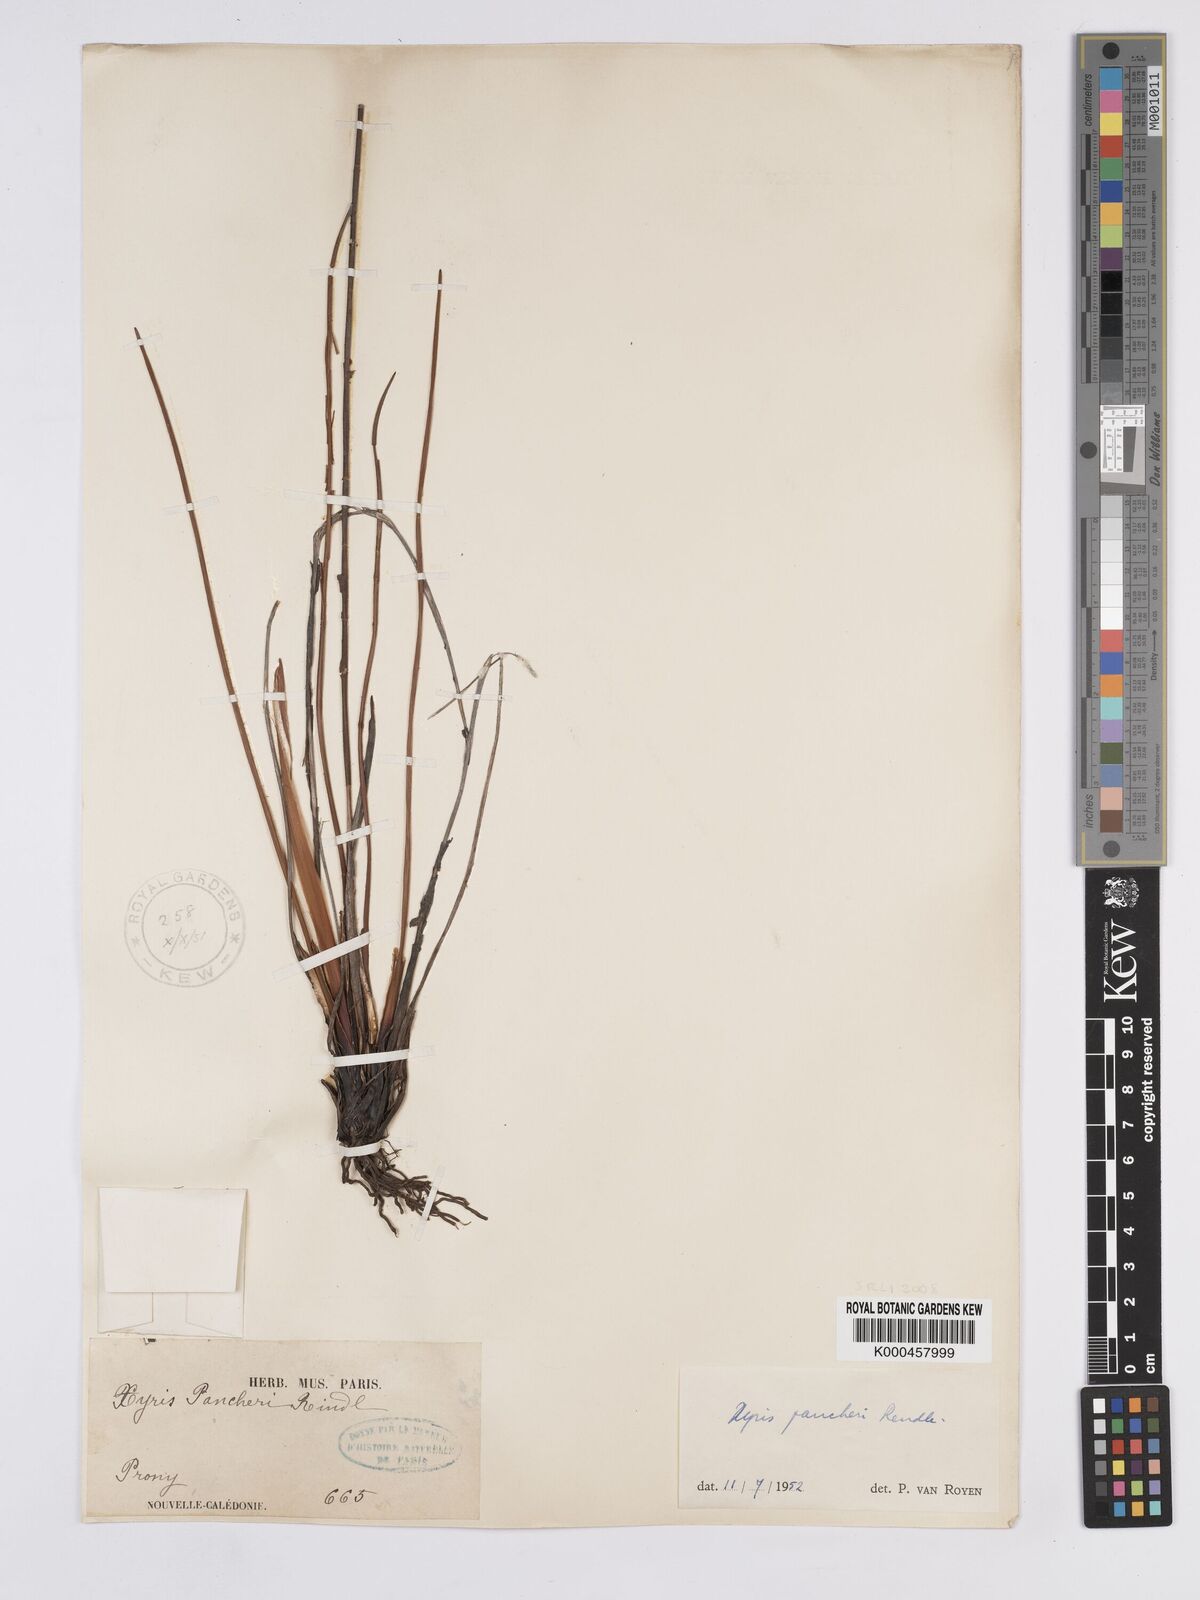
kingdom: Plantae
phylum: Tracheophyta
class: Liliopsida
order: Poales
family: Xyridaceae
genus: Xyris
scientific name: Xyris pancheri
